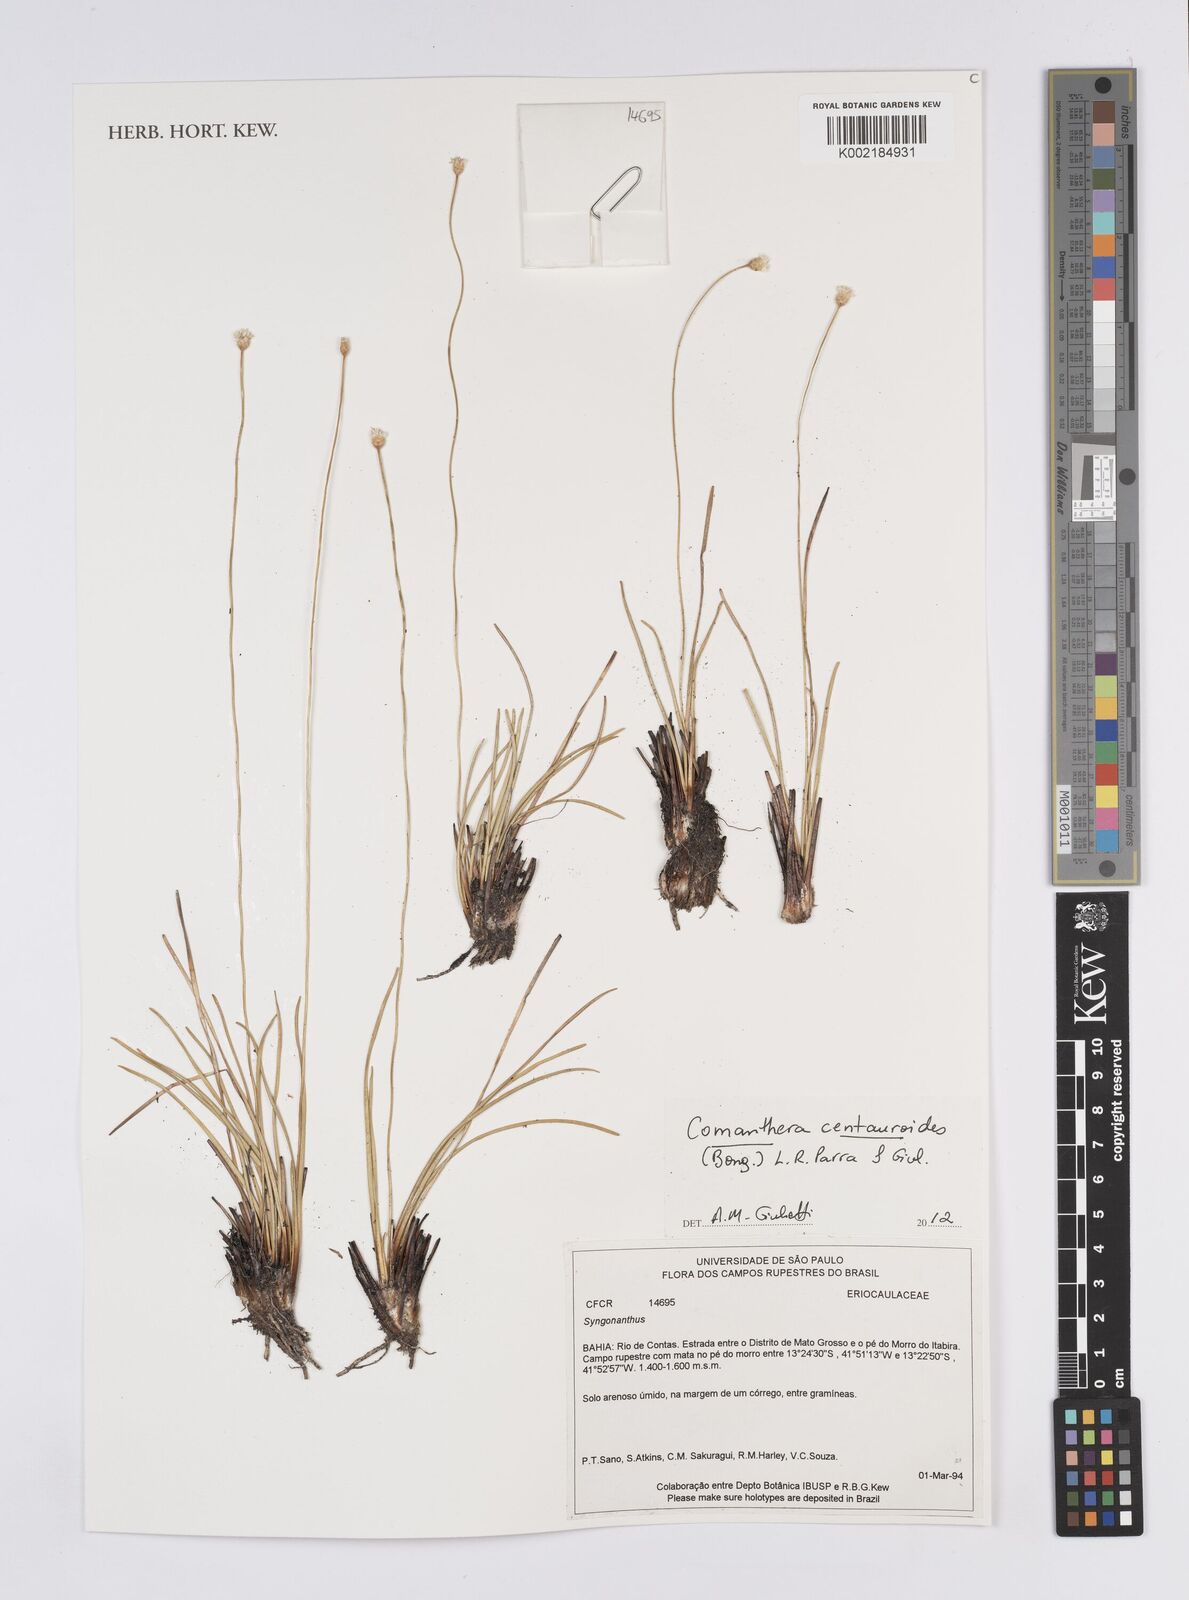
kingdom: Plantae
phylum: Tracheophyta
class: Liliopsida
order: Poales
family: Eriocaulaceae
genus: Comanthera
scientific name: Comanthera centauroides
